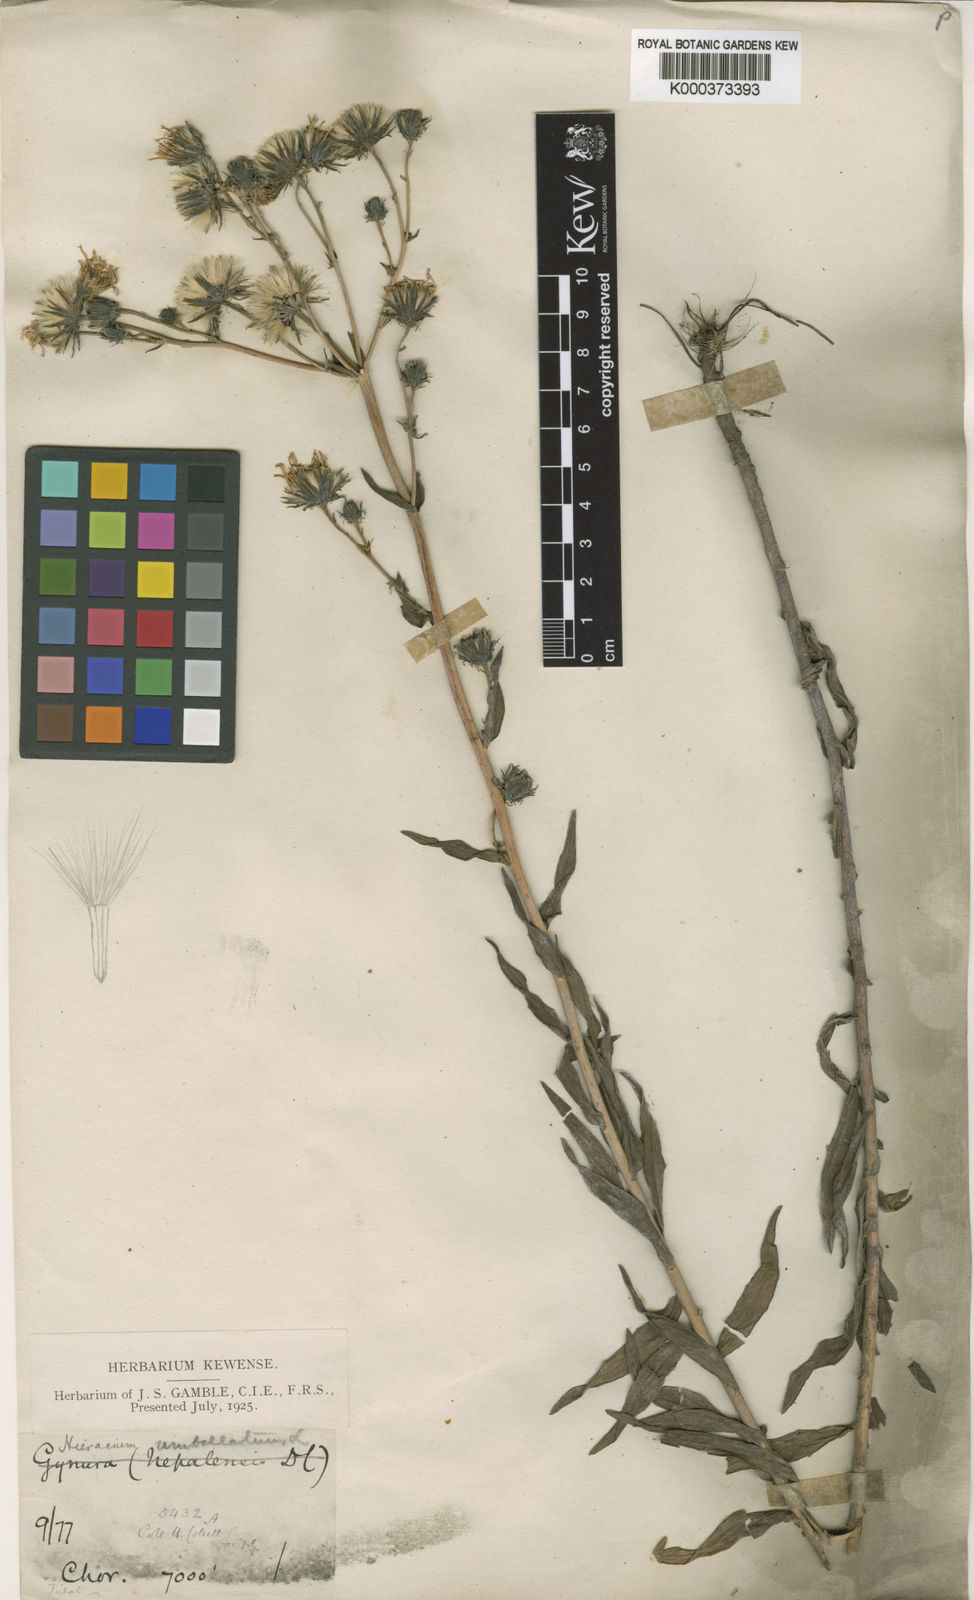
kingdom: Plantae
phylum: Tracheophyta
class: Magnoliopsida
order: Asterales
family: Asteraceae
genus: Hieracium
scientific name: Hieracium umbellatum
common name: Northern hawkweed
